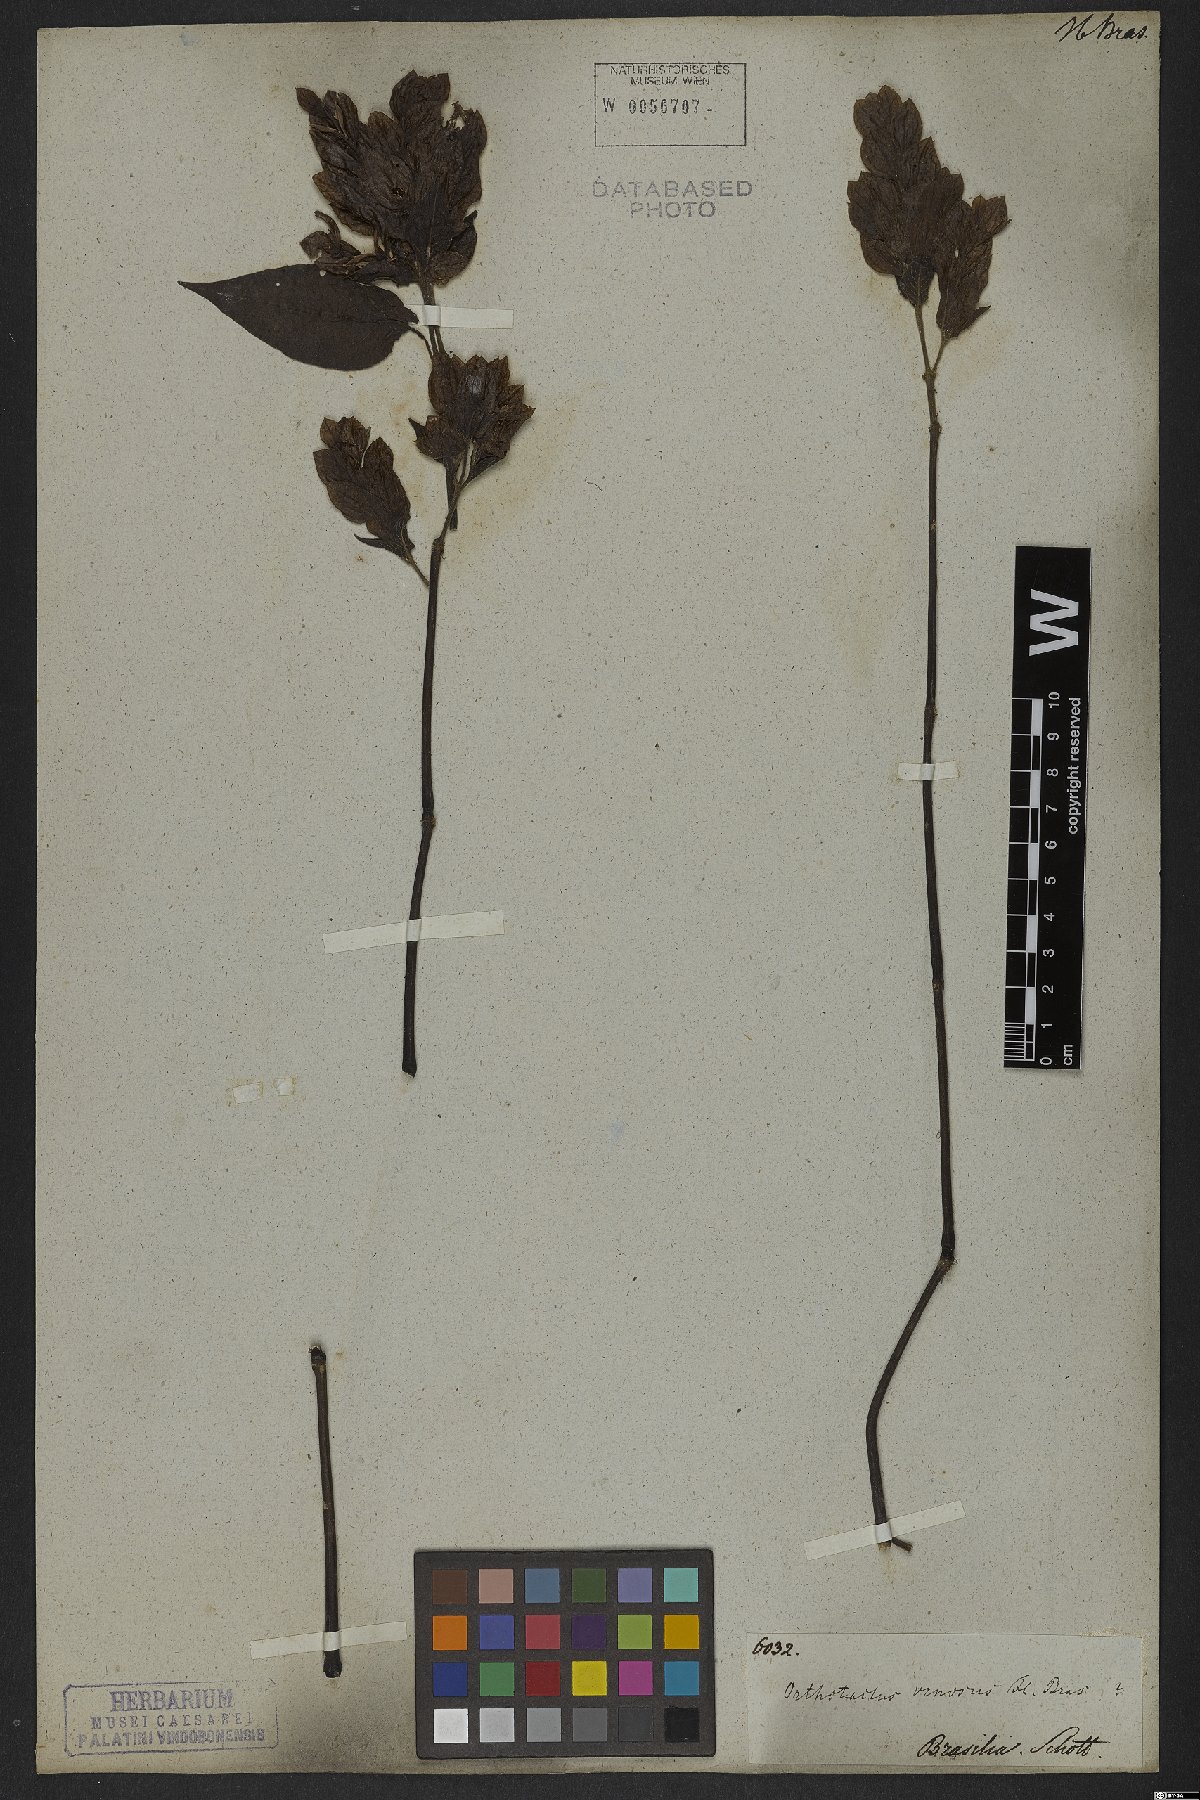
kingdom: Plantae
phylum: Tracheophyta
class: Magnoliopsida
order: Lamiales
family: Acanthaceae
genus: Justicia
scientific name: Justicia aequilabris
